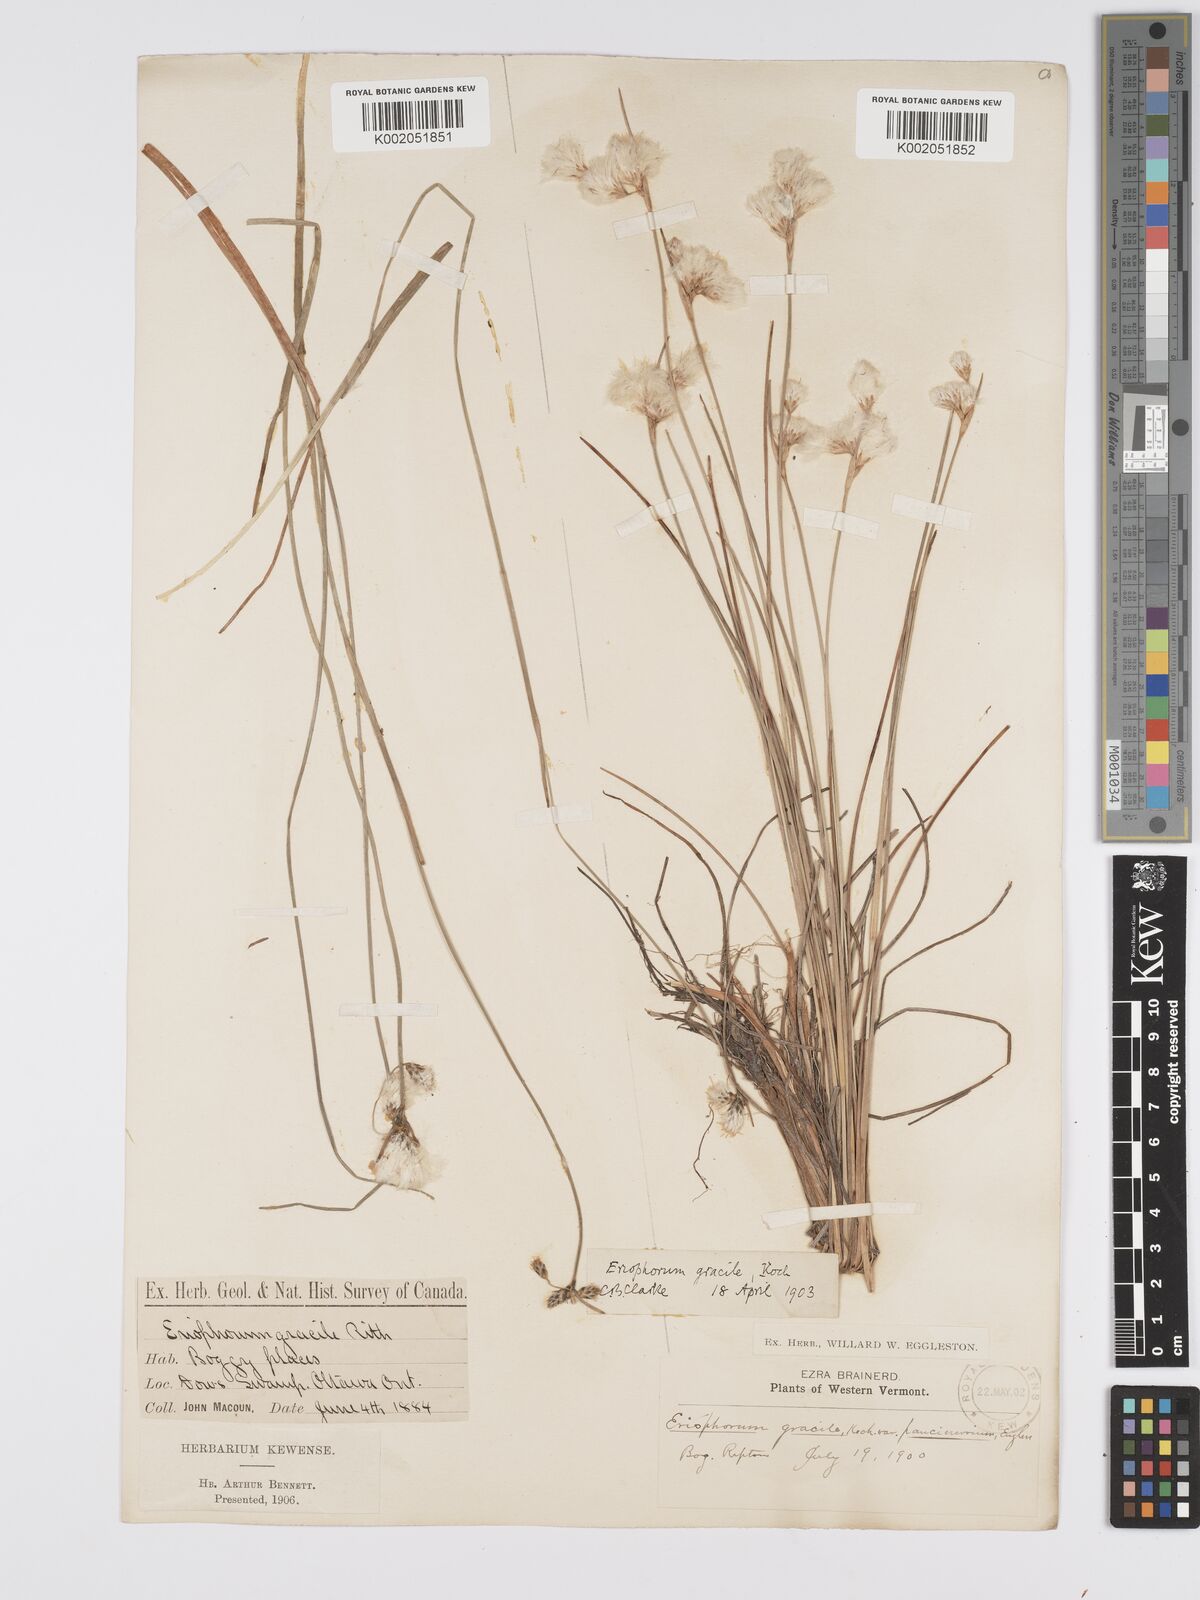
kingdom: Plantae
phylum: Tracheophyta
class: Liliopsida
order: Poales
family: Cyperaceae
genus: Eriophorum
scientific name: Eriophorum gracile
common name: Slender cottongrass
